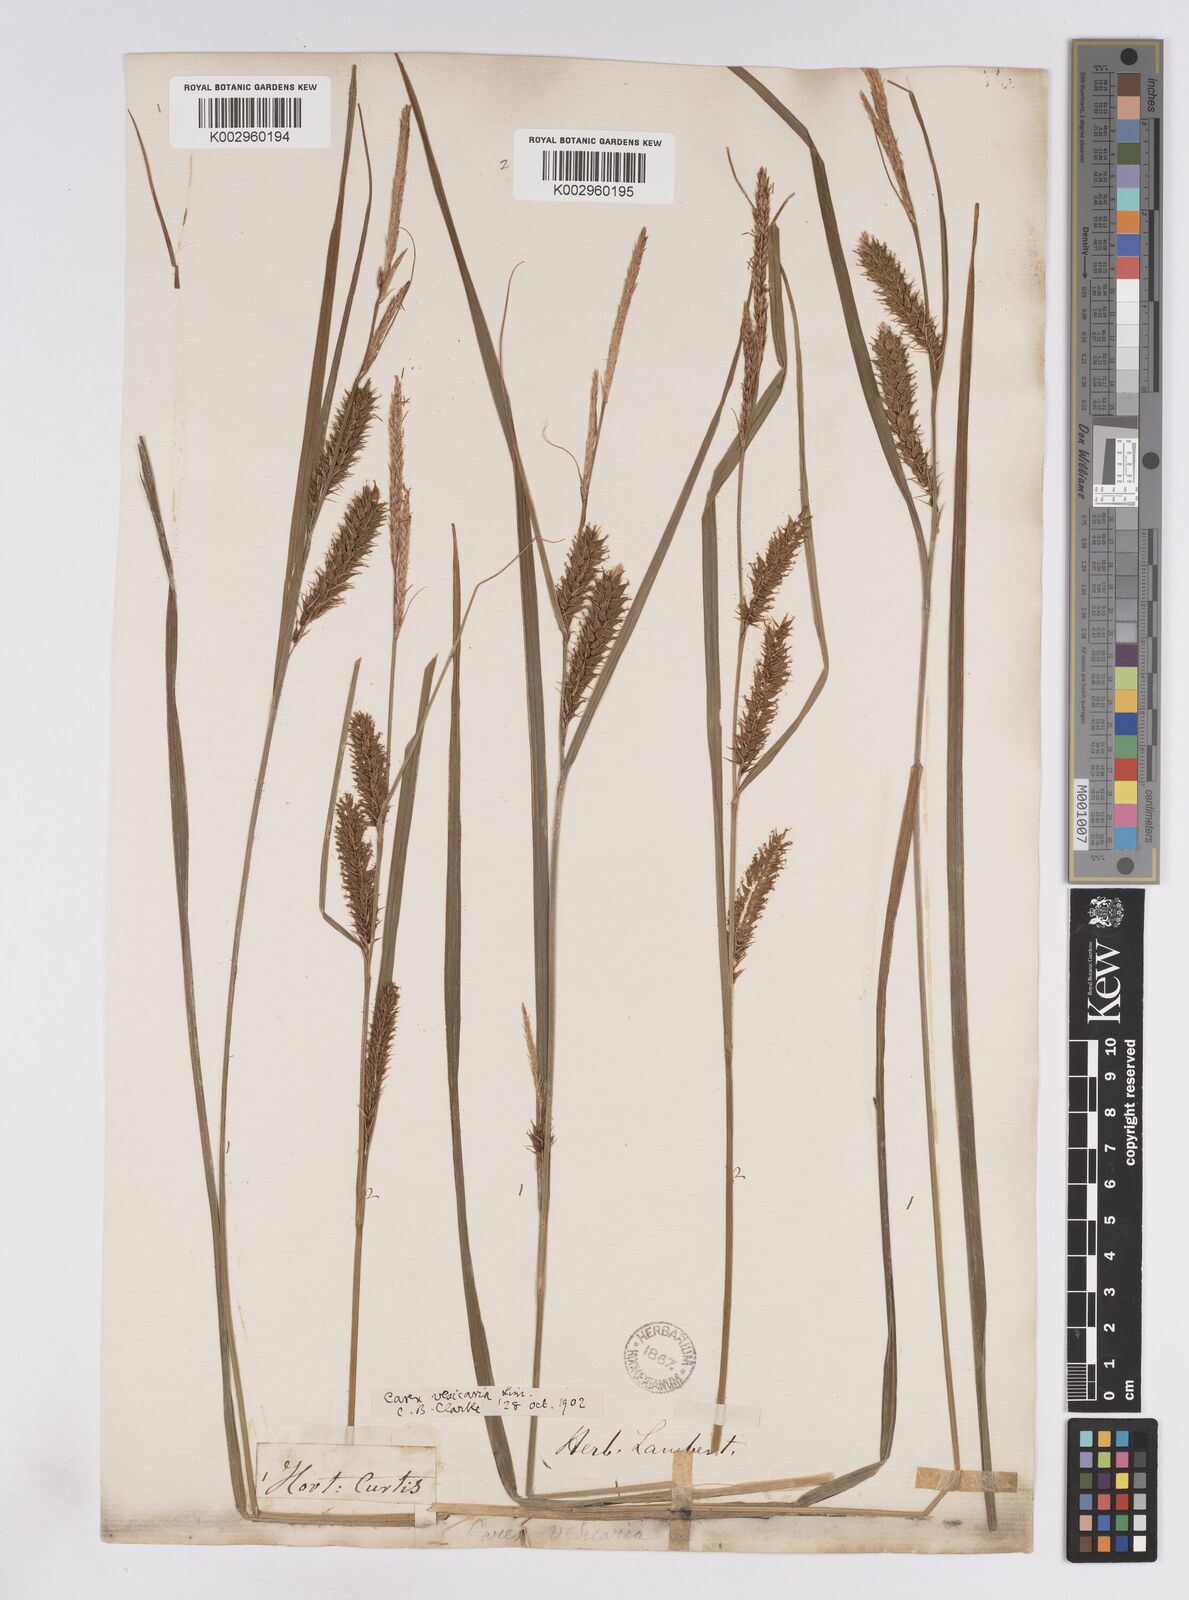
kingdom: Plantae
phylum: Tracheophyta
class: Liliopsida
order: Poales
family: Cyperaceae
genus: Carex
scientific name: Carex vesicaria
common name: Bladder-sedge
